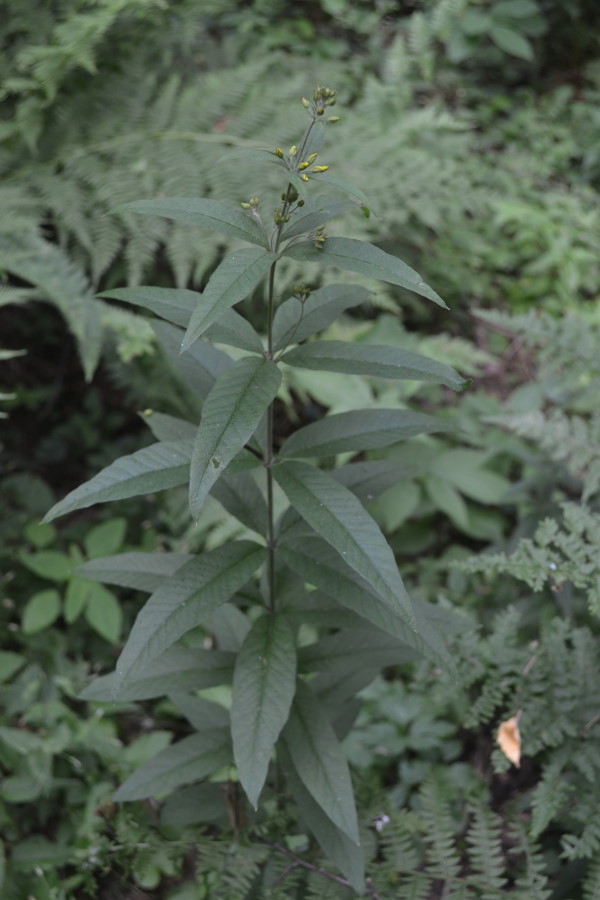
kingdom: Plantae
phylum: Tracheophyta
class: Magnoliopsida
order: Ericales
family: Primulaceae
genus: Lysimachia
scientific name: Lysimachia vulgaris
